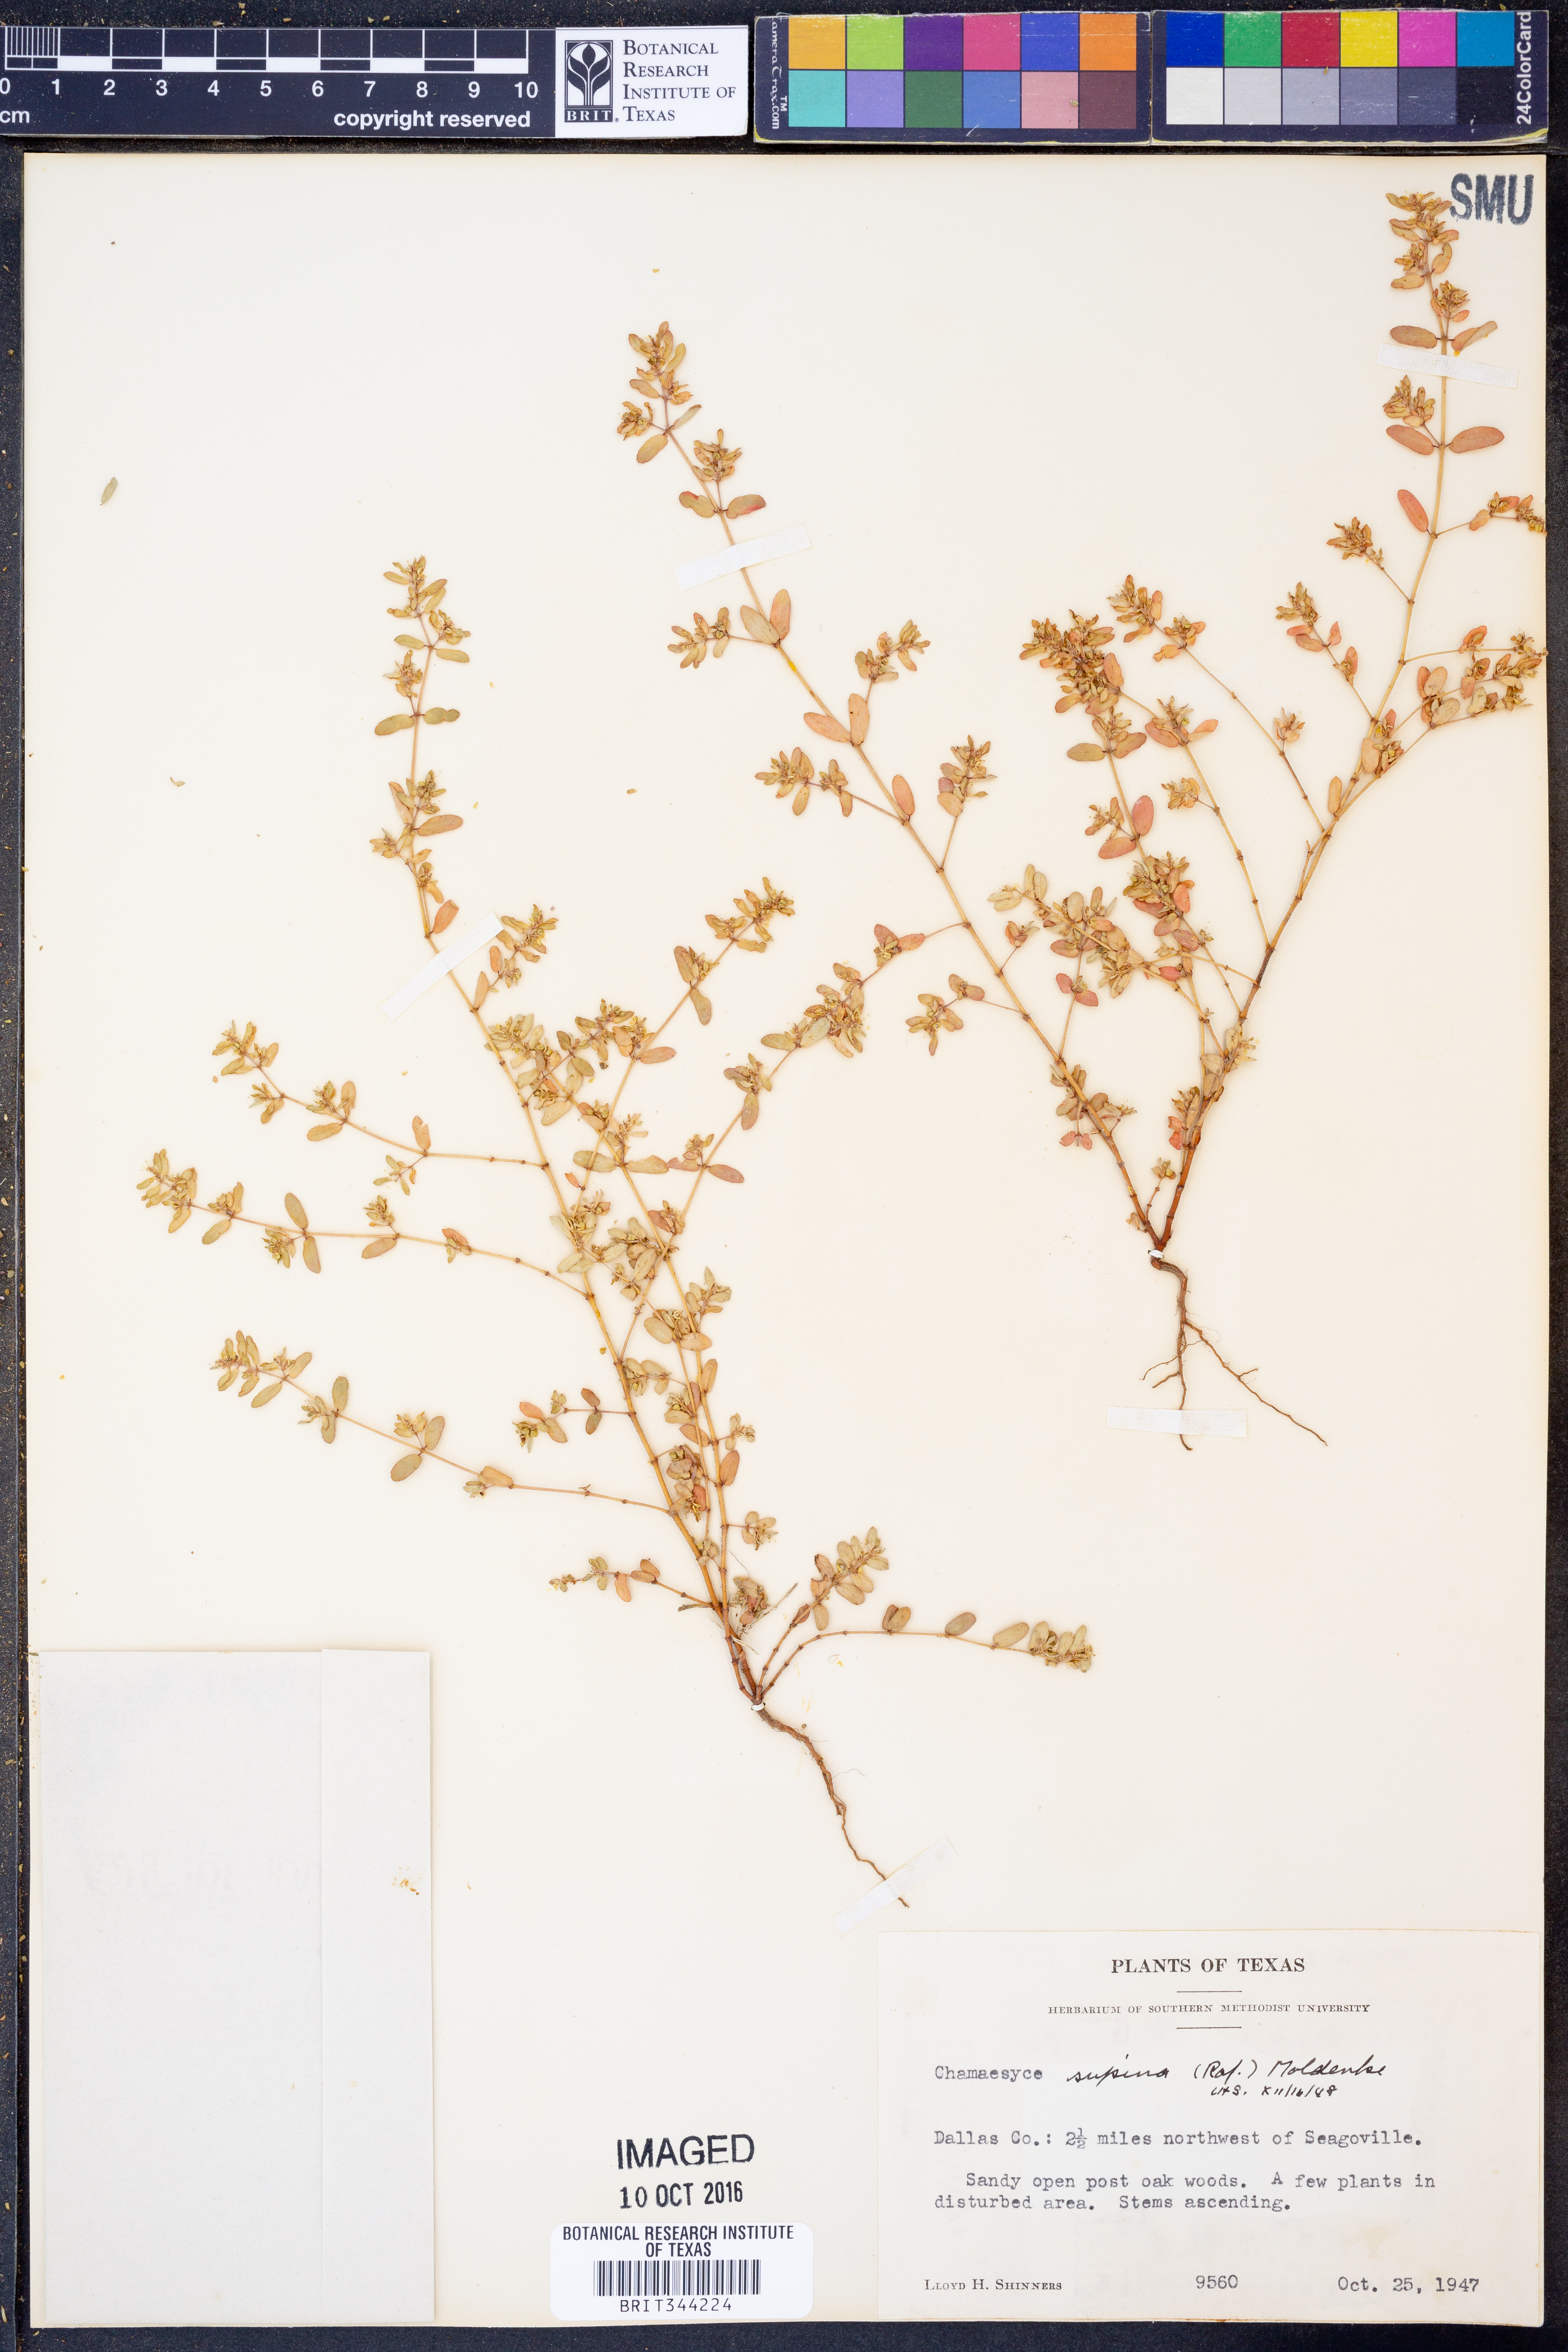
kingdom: Plantae
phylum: Tracheophyta
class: Magnoliopsida
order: Malpighiales
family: Euphorbiaceae
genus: Euphorbia
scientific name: Euphorbia maculata
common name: Spotted spurge
